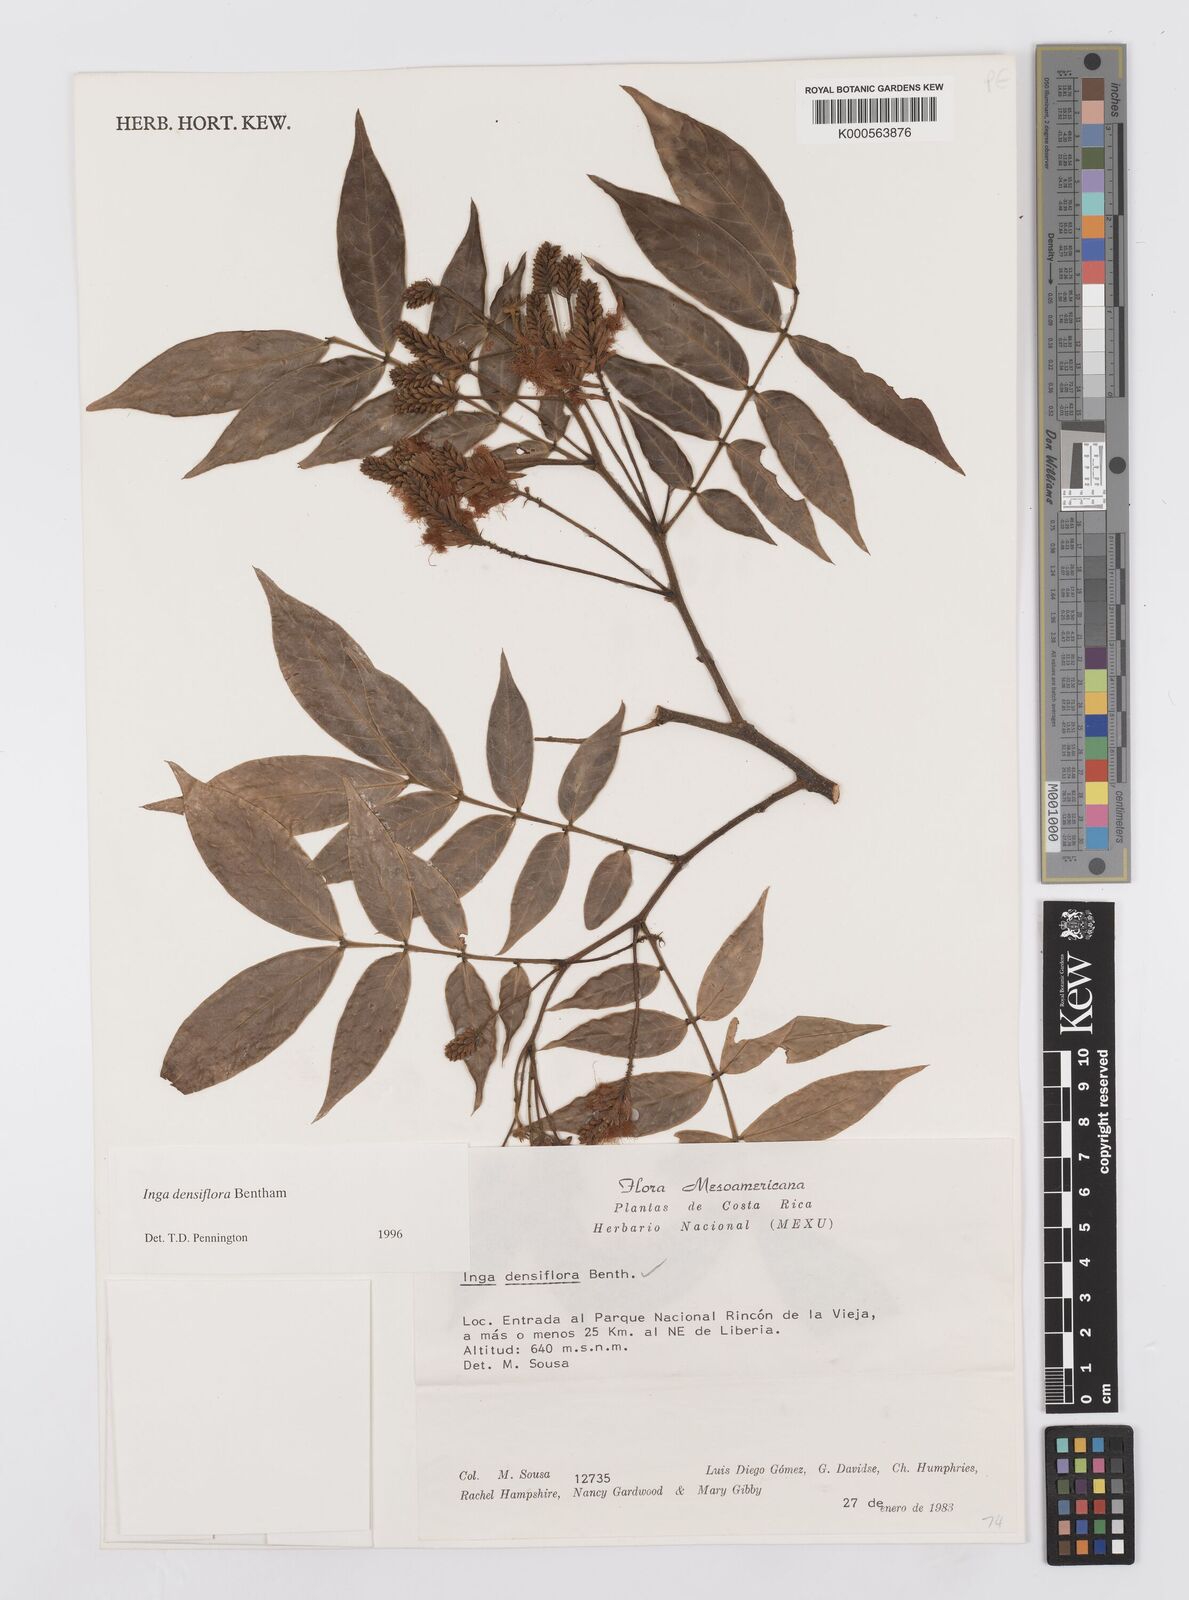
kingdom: Plantae
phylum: Tracheophyta
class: Magnoliopsida
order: Fabales
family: Fabaceae
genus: Inga
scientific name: Inga densiflora
